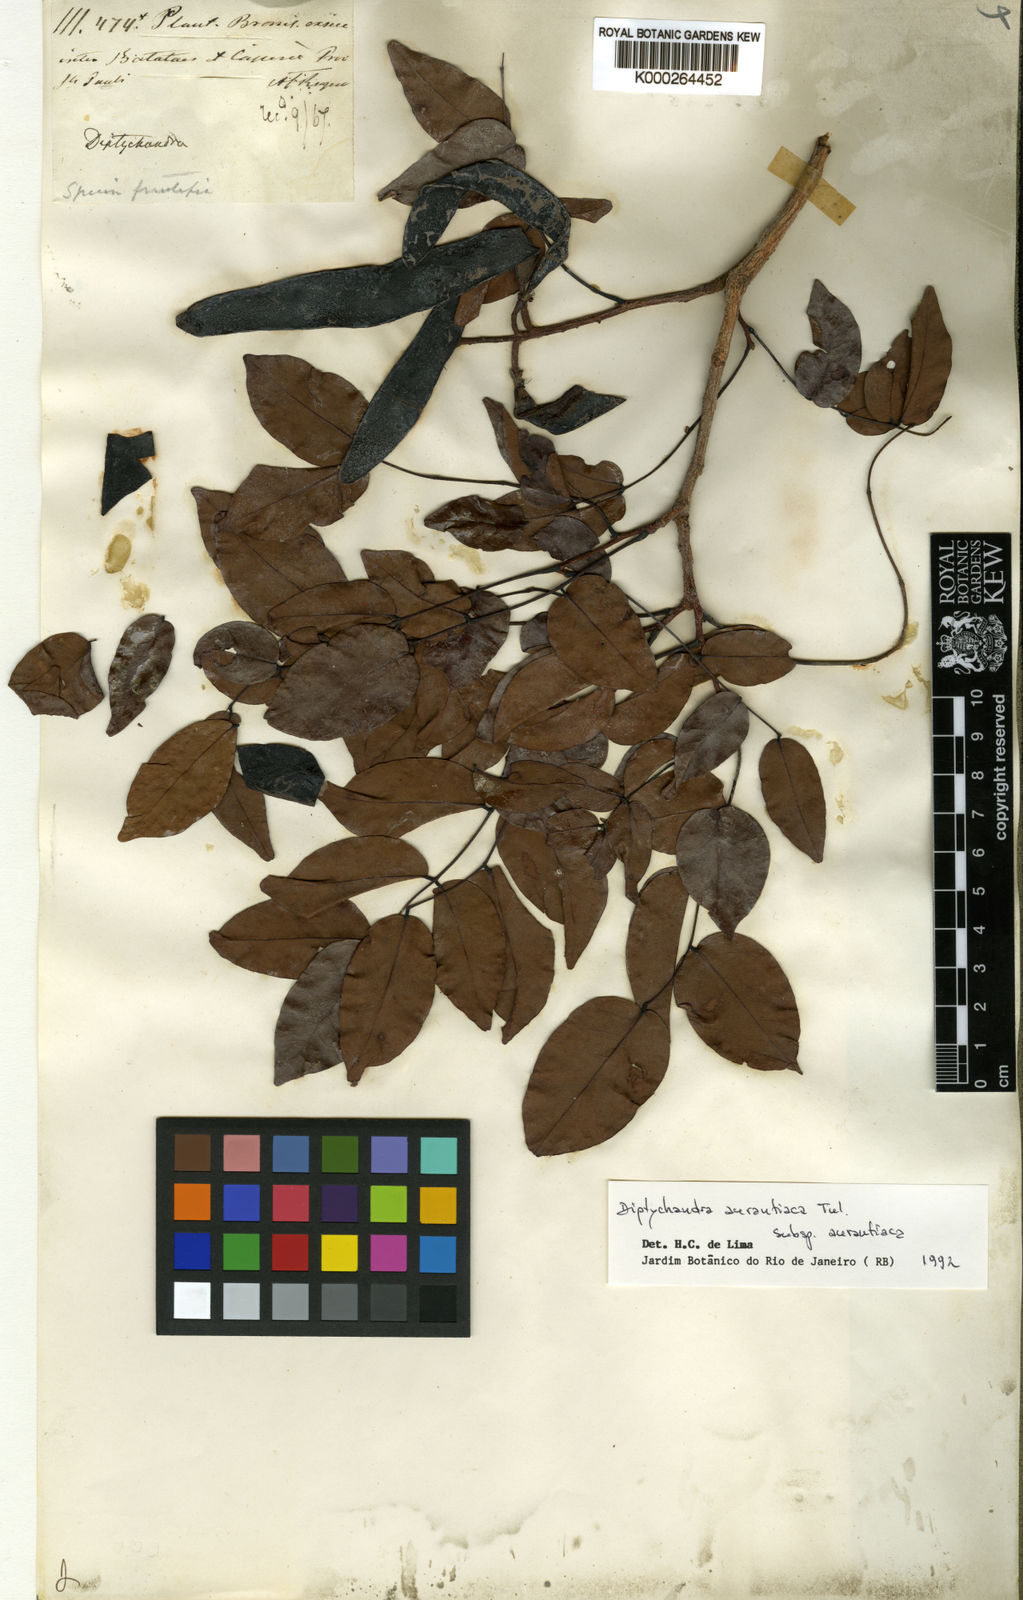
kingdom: Plantae
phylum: Tracheophyta
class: Magnoliopsida
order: Fabales
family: Fabaceae
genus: Diptychandra
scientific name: Diptychandra aurantiaca
